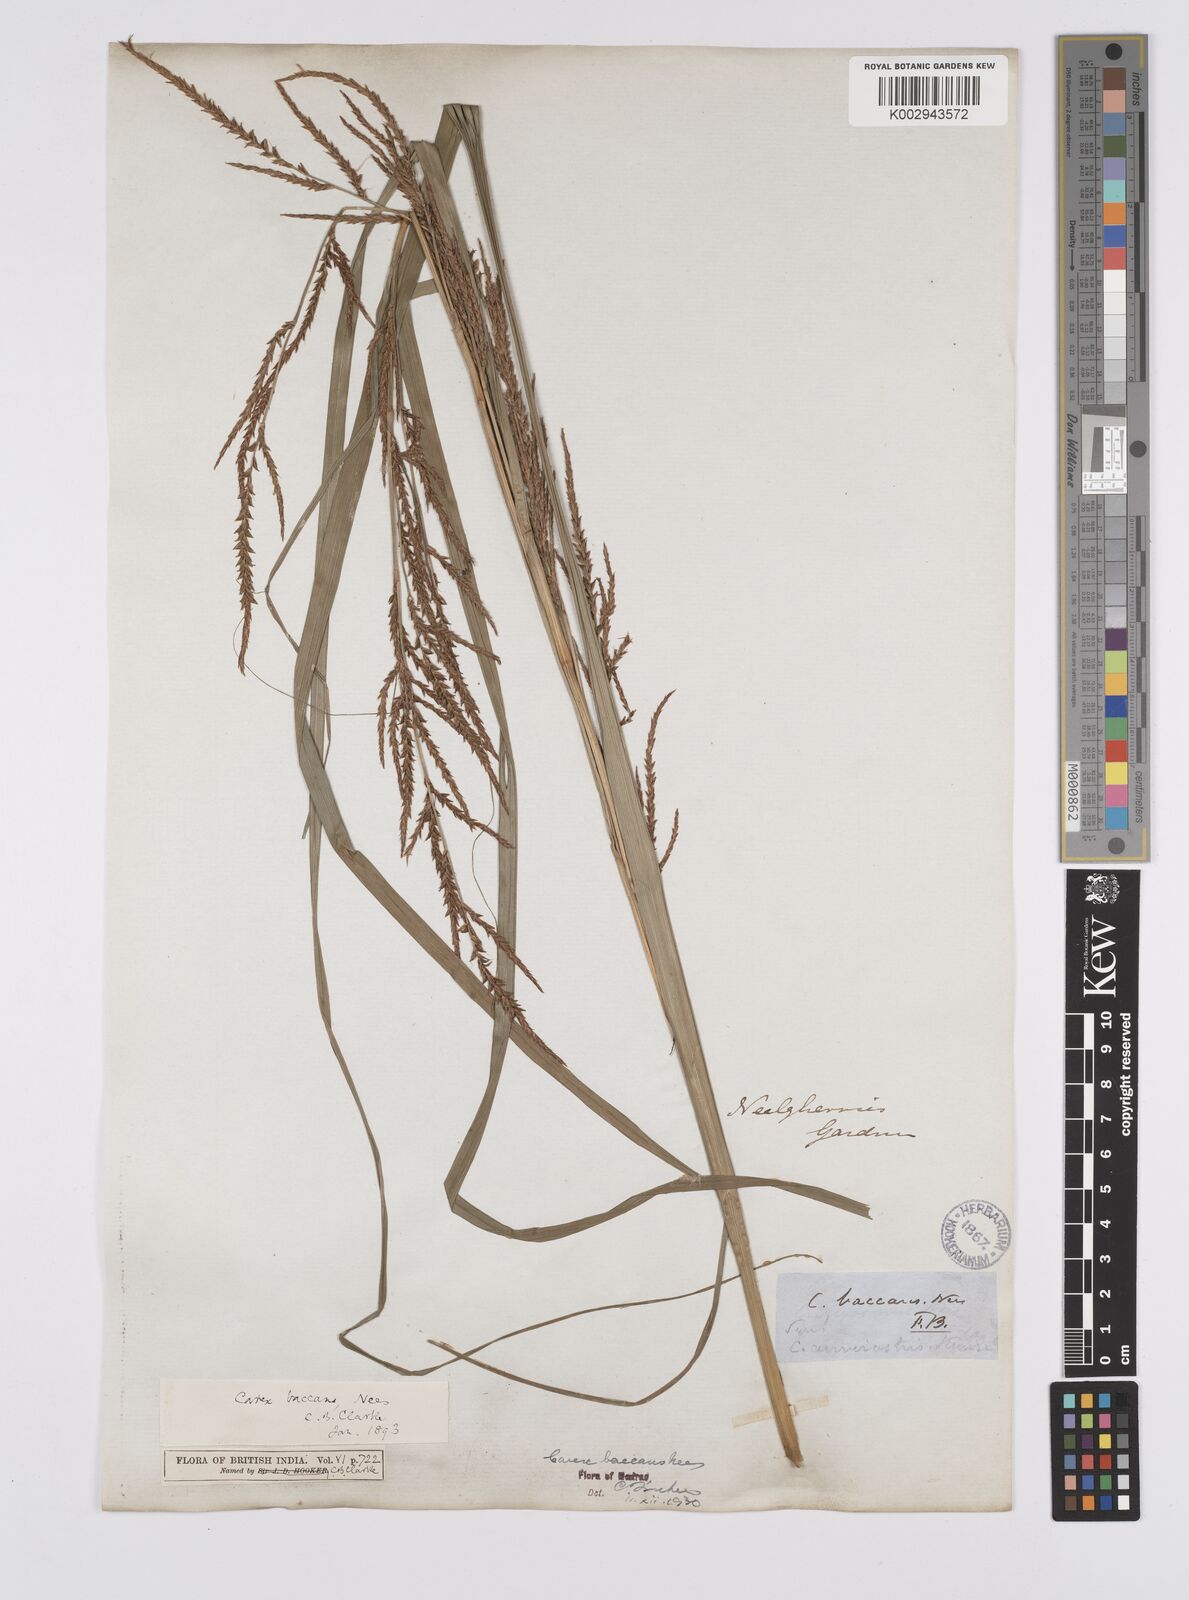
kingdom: Plantae
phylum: Tracheophyta
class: Liliopsida
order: Poales
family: Cyperaceae
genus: Carex
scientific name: Carex baccans
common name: Crimson seeded sedge
